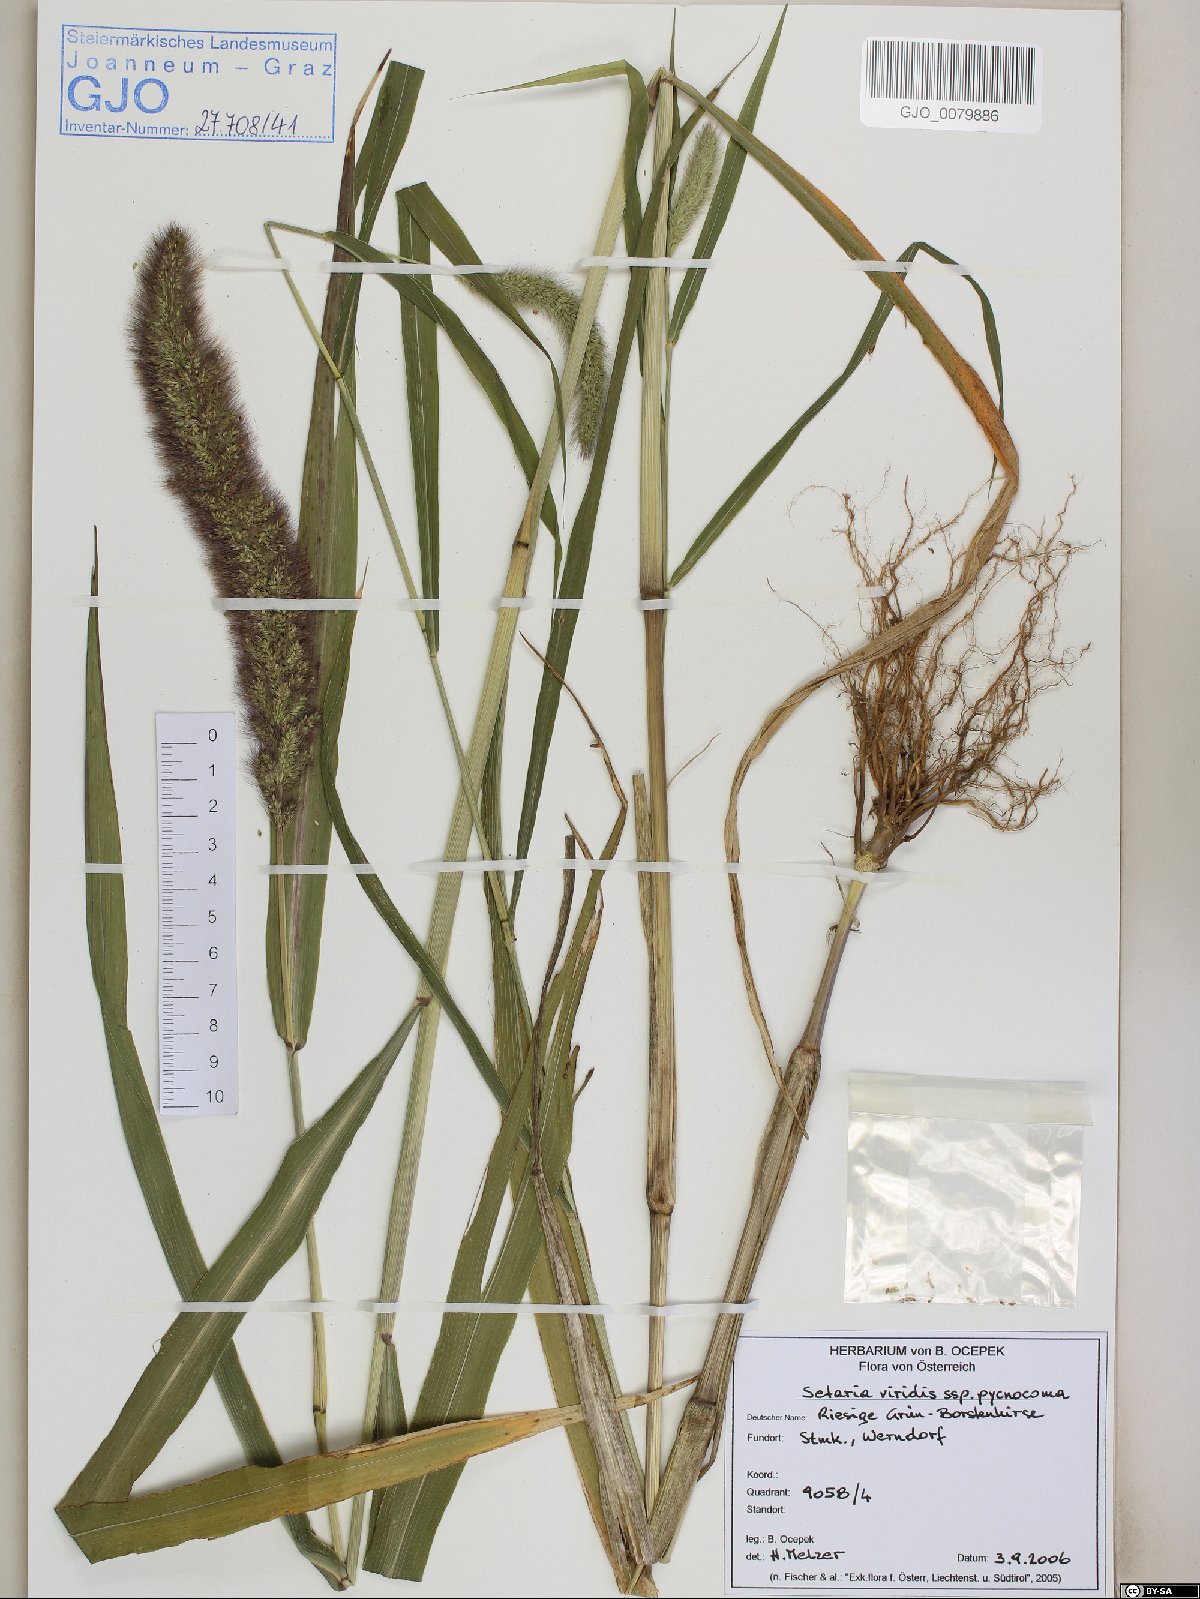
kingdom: Plantae
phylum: Tracheophyta
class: Liliopsida
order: Poales
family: Poaceae
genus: Setaria
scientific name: Setaria viridis
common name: Green bristlegrass
